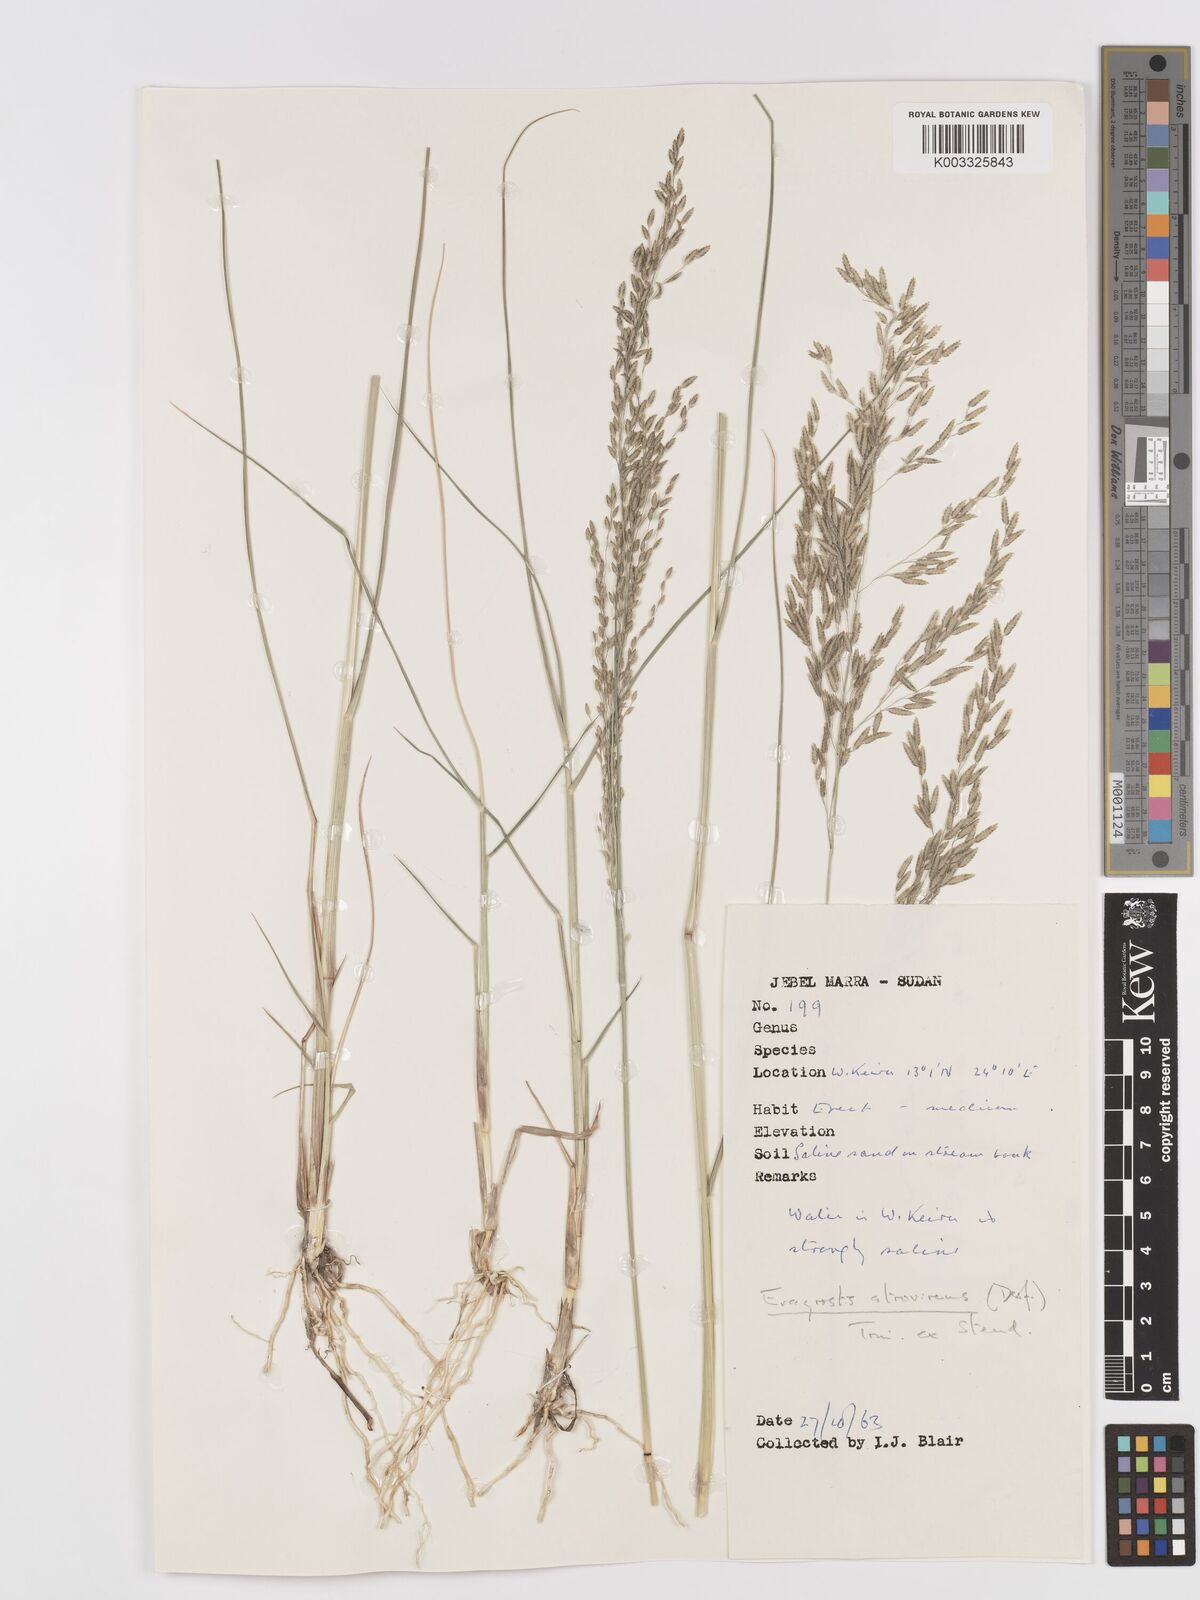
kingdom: Plantae
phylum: Tracheophyta
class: Liliopsida
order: Poales
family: Poaceae
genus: Eragrostis
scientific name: Eragrostis atrovirens
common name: Thalia lovegrass
